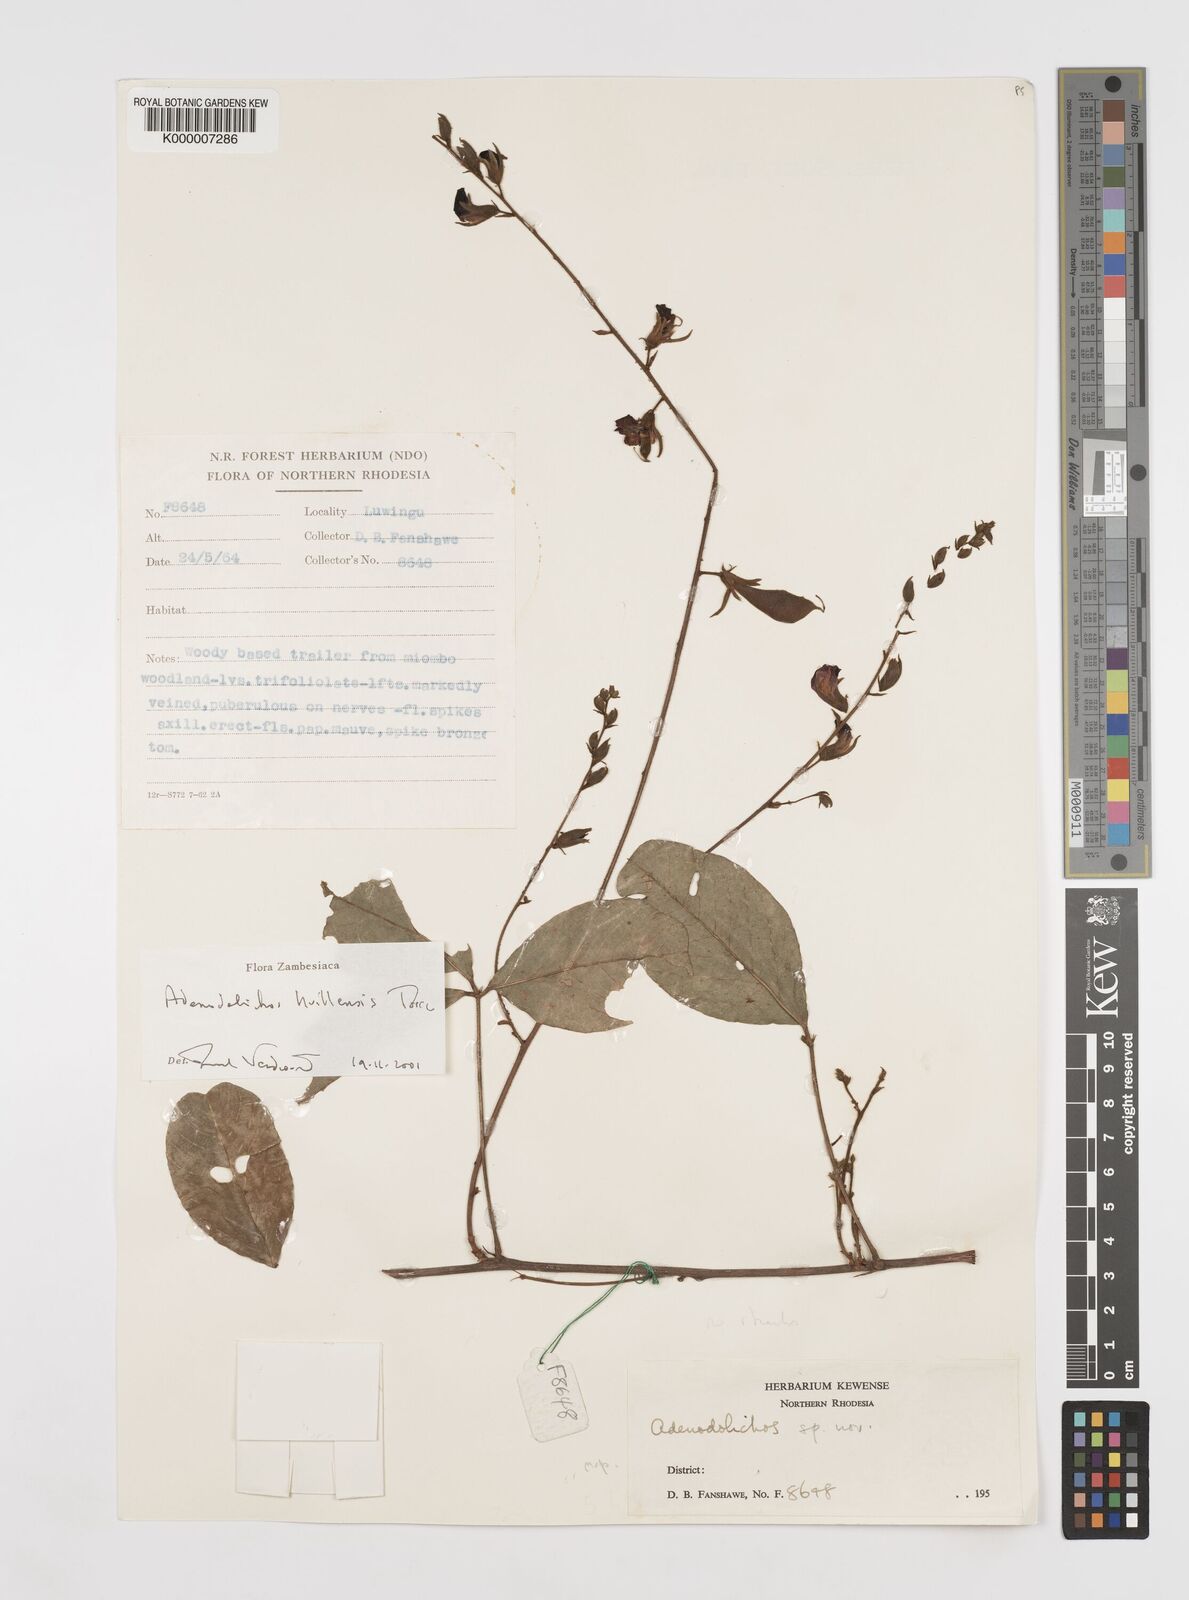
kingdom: Plantae
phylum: Tracheophyta
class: Magnoliopsida
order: Fabales
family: Fabaceae
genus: Adenodolichos
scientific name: Adenodolichos huillensis
